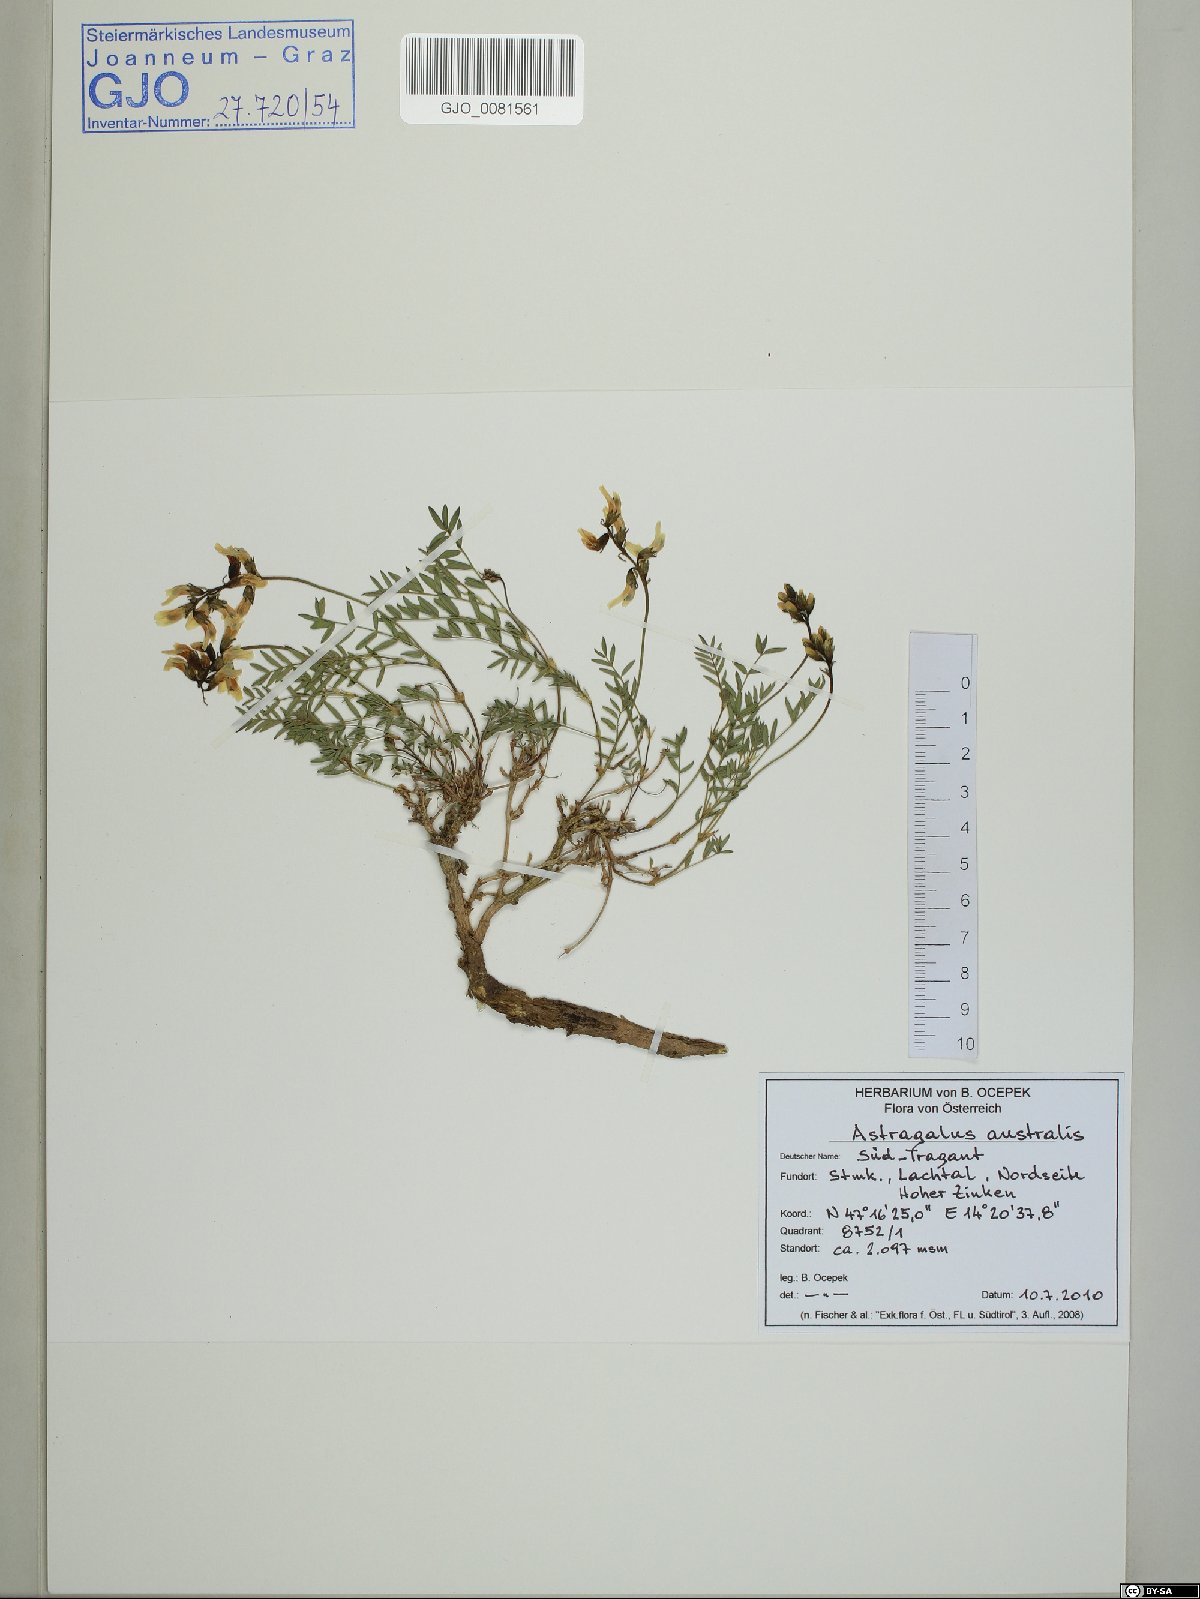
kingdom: Plantae
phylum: Tracheophyta
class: Magnoliopsida
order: Fabales
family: Fabaceae
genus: Astragalus
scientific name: Astragalus australis
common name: Indian milk-vetch
